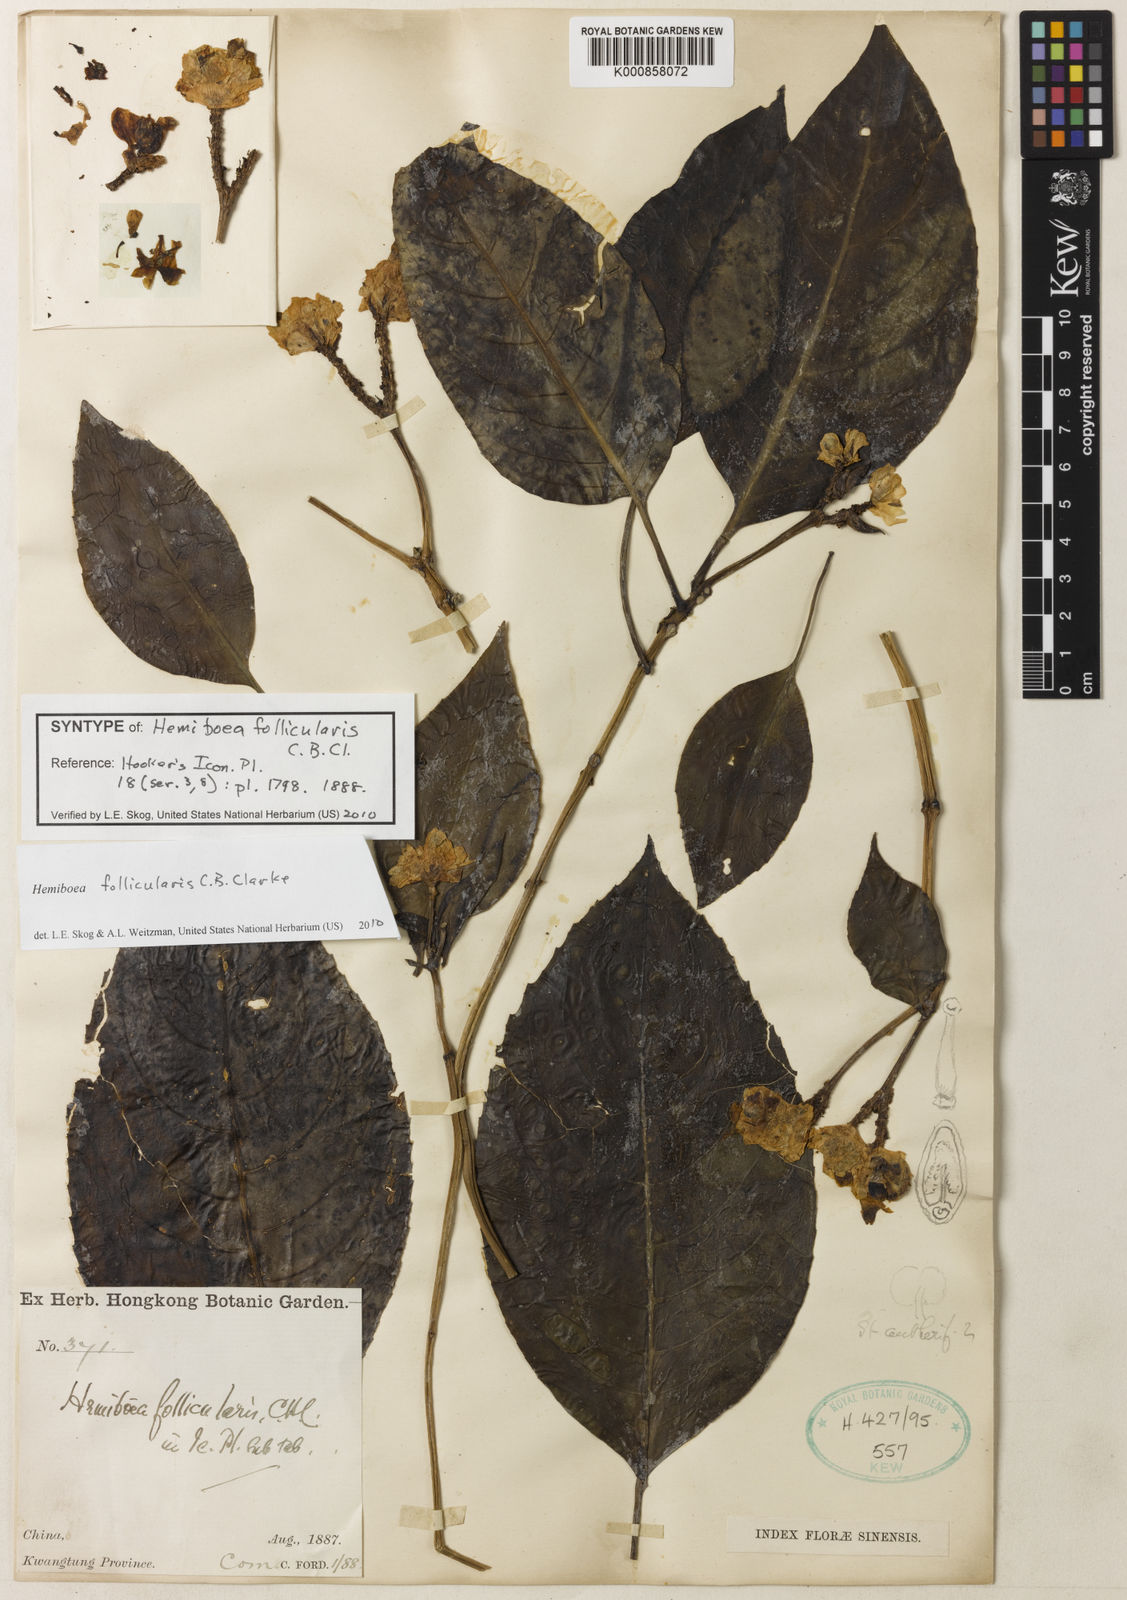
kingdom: Plantae
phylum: Tracheophyta
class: Magnoliopsida
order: Lamiales
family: Gesneriaceae
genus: Hemiboea
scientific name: Hemiboea follicularis
